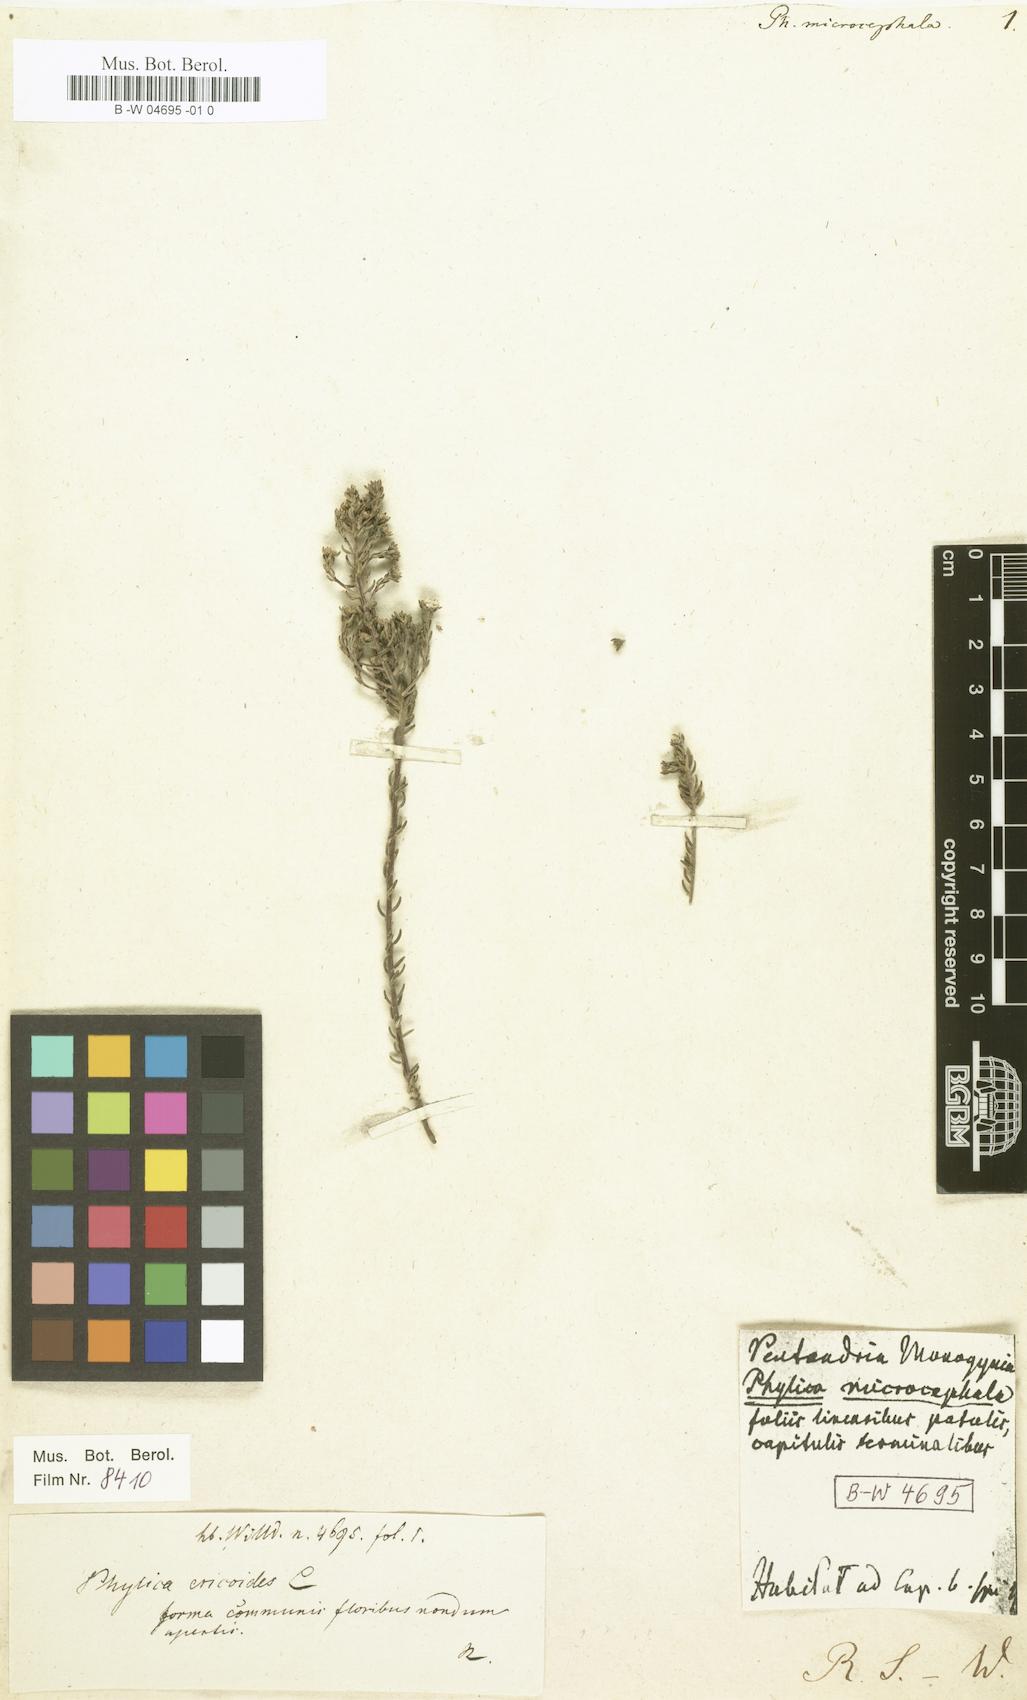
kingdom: Plantae
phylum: Tracheophyta
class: Magnoliopsida
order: Rosales
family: Rhamnaceae
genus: Phylica
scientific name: Phylica
